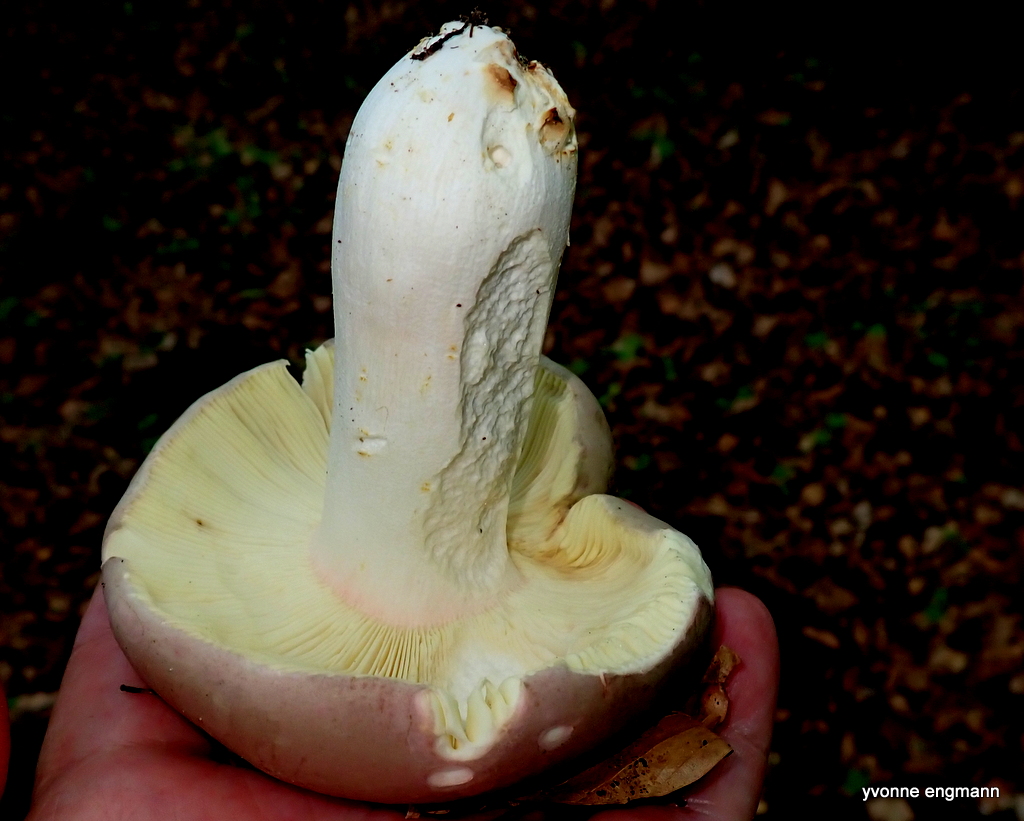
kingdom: Fungi
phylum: Basidiomycota
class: Agaricomycetes
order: Russulales
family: Russulaceae
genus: Russula
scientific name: Russula olivacea
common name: stor skørhat
